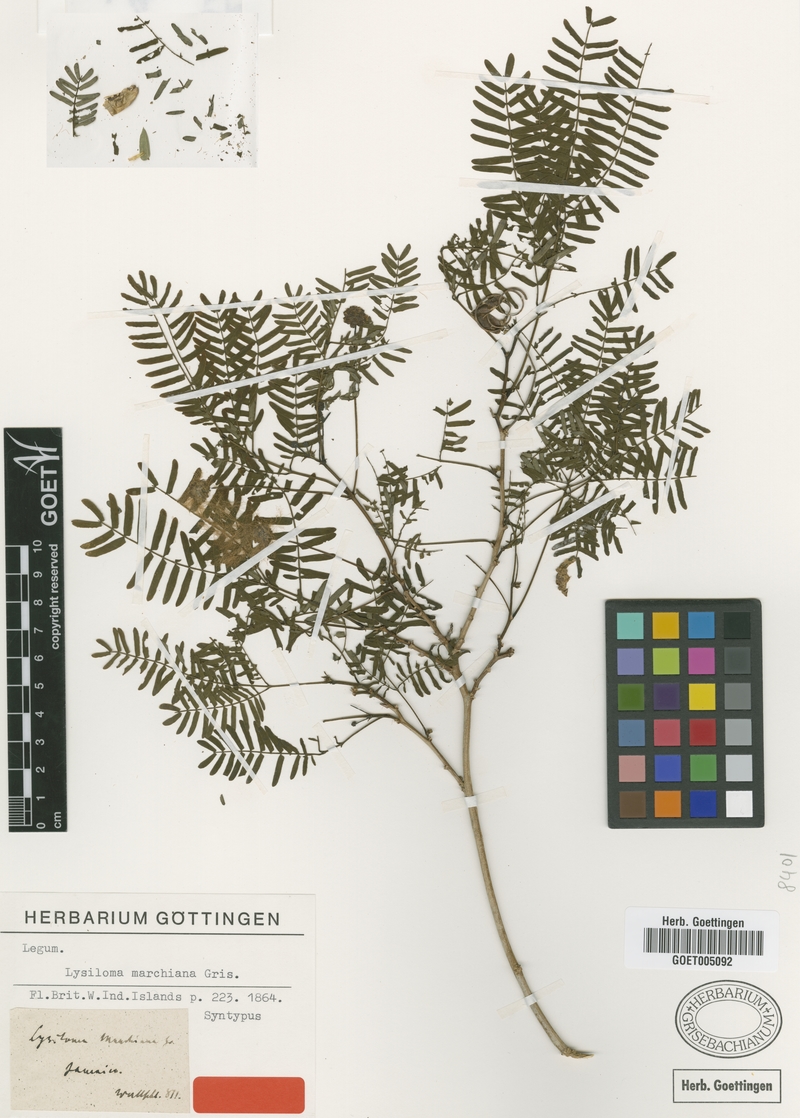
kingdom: Plantae
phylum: Tracheophyta
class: Magnoliopsida
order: Fabales
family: Fabaceae
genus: Zapoteca
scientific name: Zapoteca portoricensis
